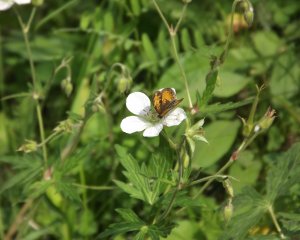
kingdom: Animalia
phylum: Arthropoda
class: Insecta
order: Lepidoptera
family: Nymphalidae
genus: Phyciodes
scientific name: Phyciodes tharos
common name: Northern Crescent
